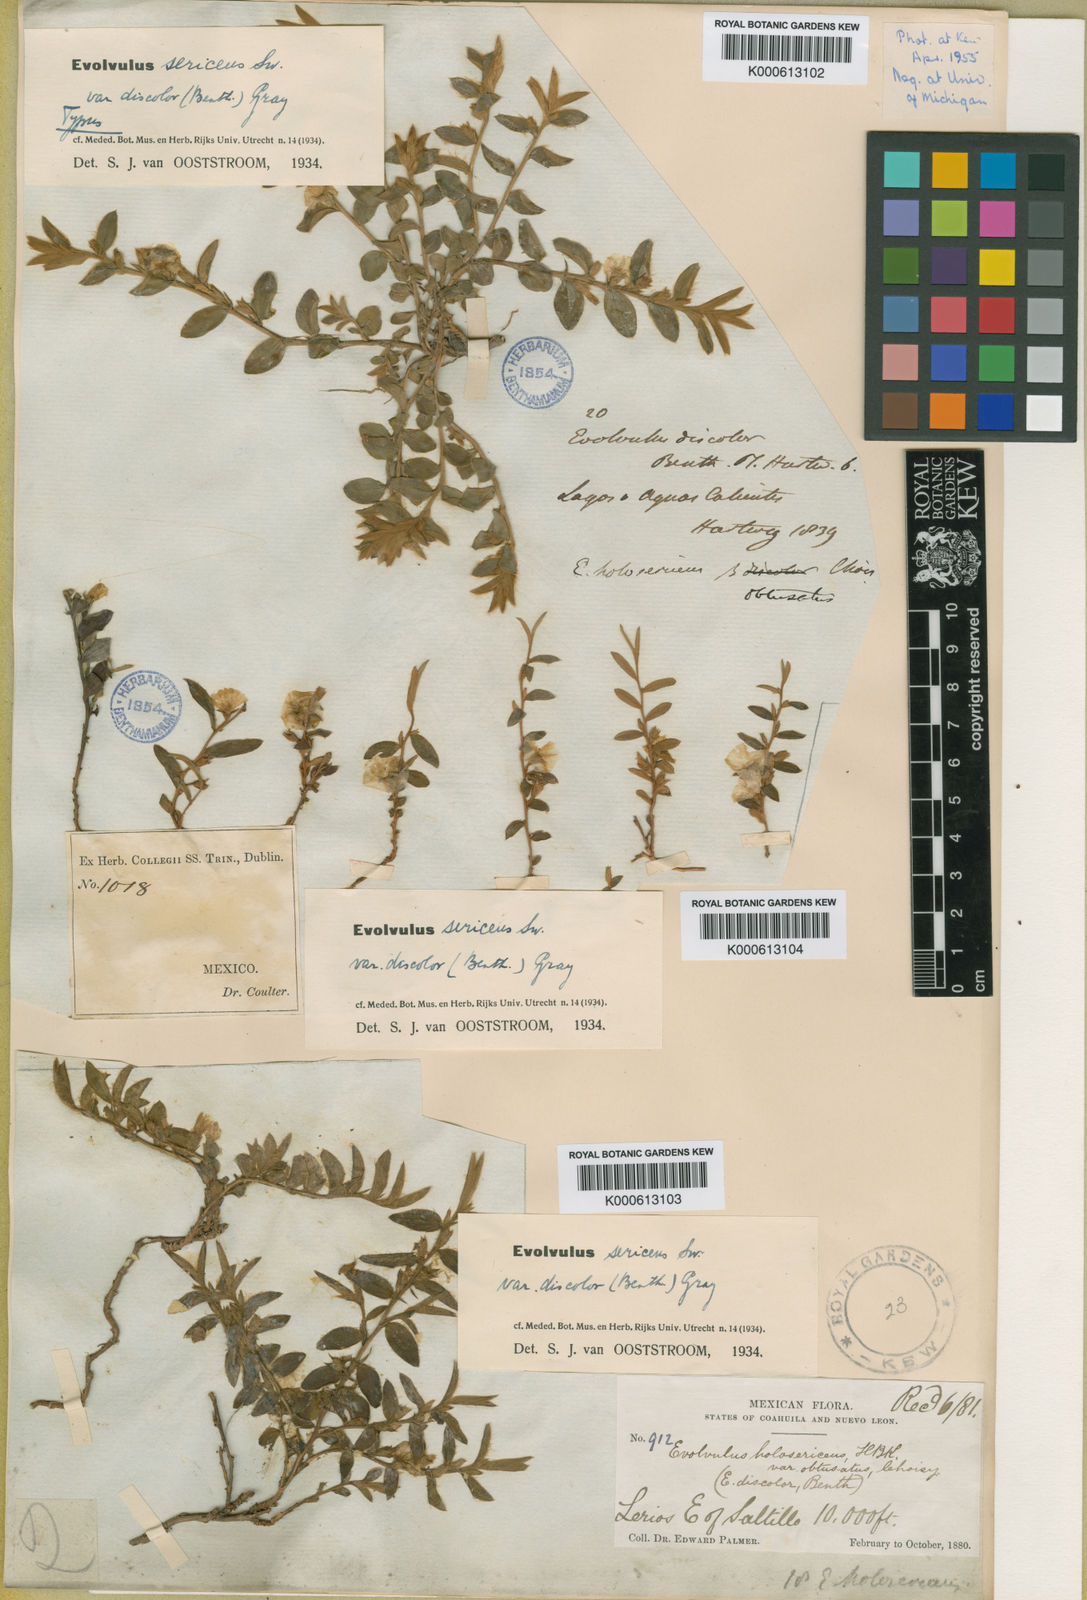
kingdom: Plantae
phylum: Tracheophyta
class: Magnoliopsida
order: Solanales
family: Convolvulaceae
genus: Evolvulus
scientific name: Evolvulus sericeus
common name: Blue dots
